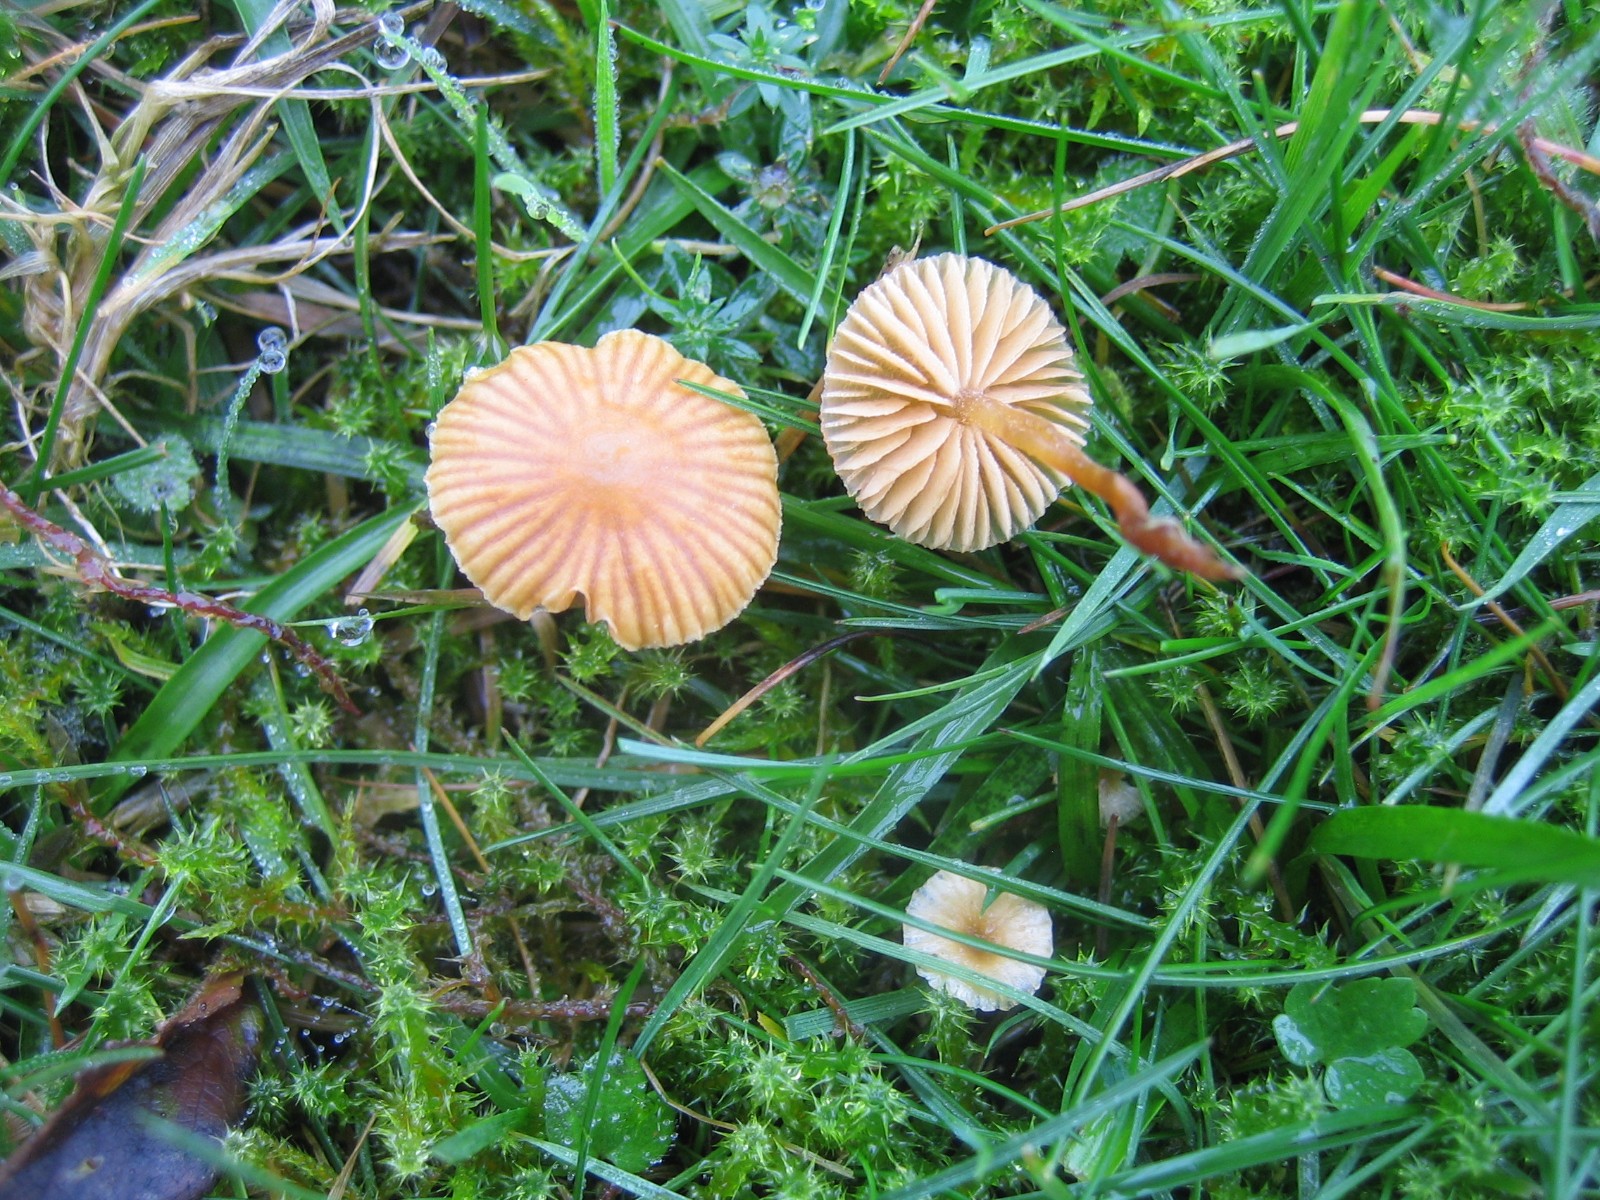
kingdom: Fungi
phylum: Basidiomycota
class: Agaricomycetes
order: Agaricales
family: Hymenogastraceae
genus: Galerina
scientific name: Galerina
